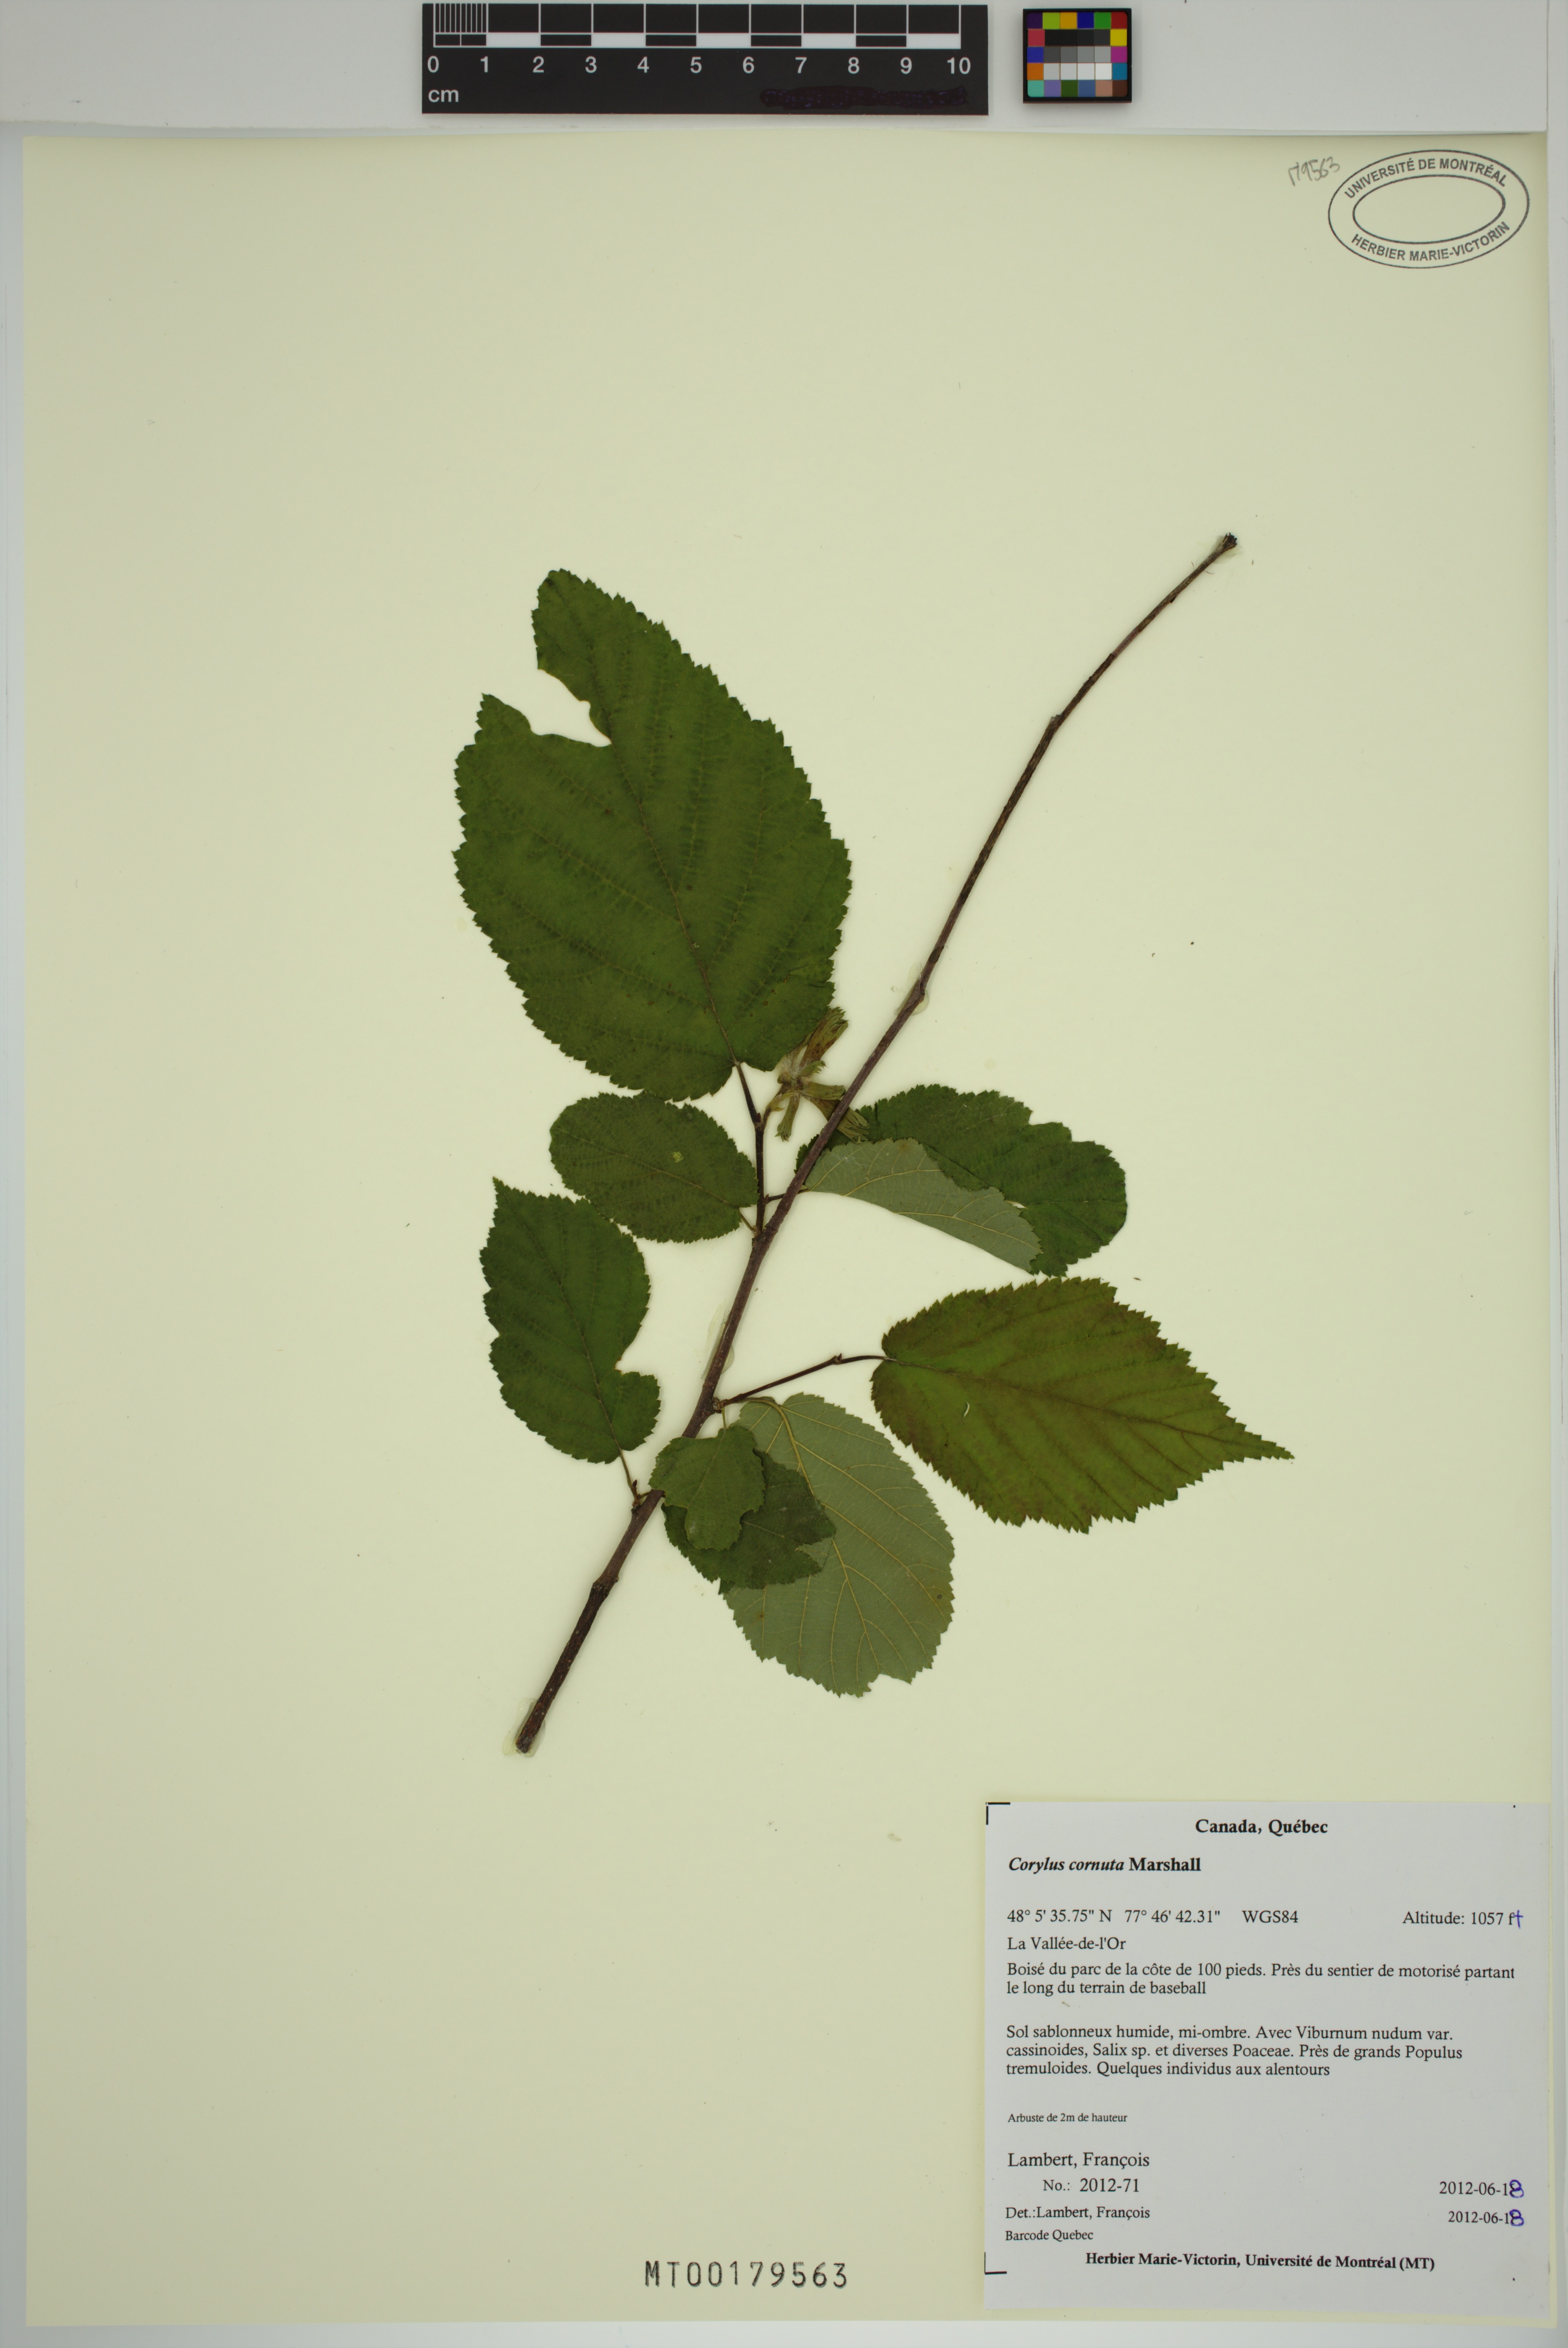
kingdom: Plantae
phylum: Tracheophyta
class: Magnoliopsida
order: Fagales
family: Betulaceae
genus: Corylus
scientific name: Corylus cornuta
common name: Beaked hazel
